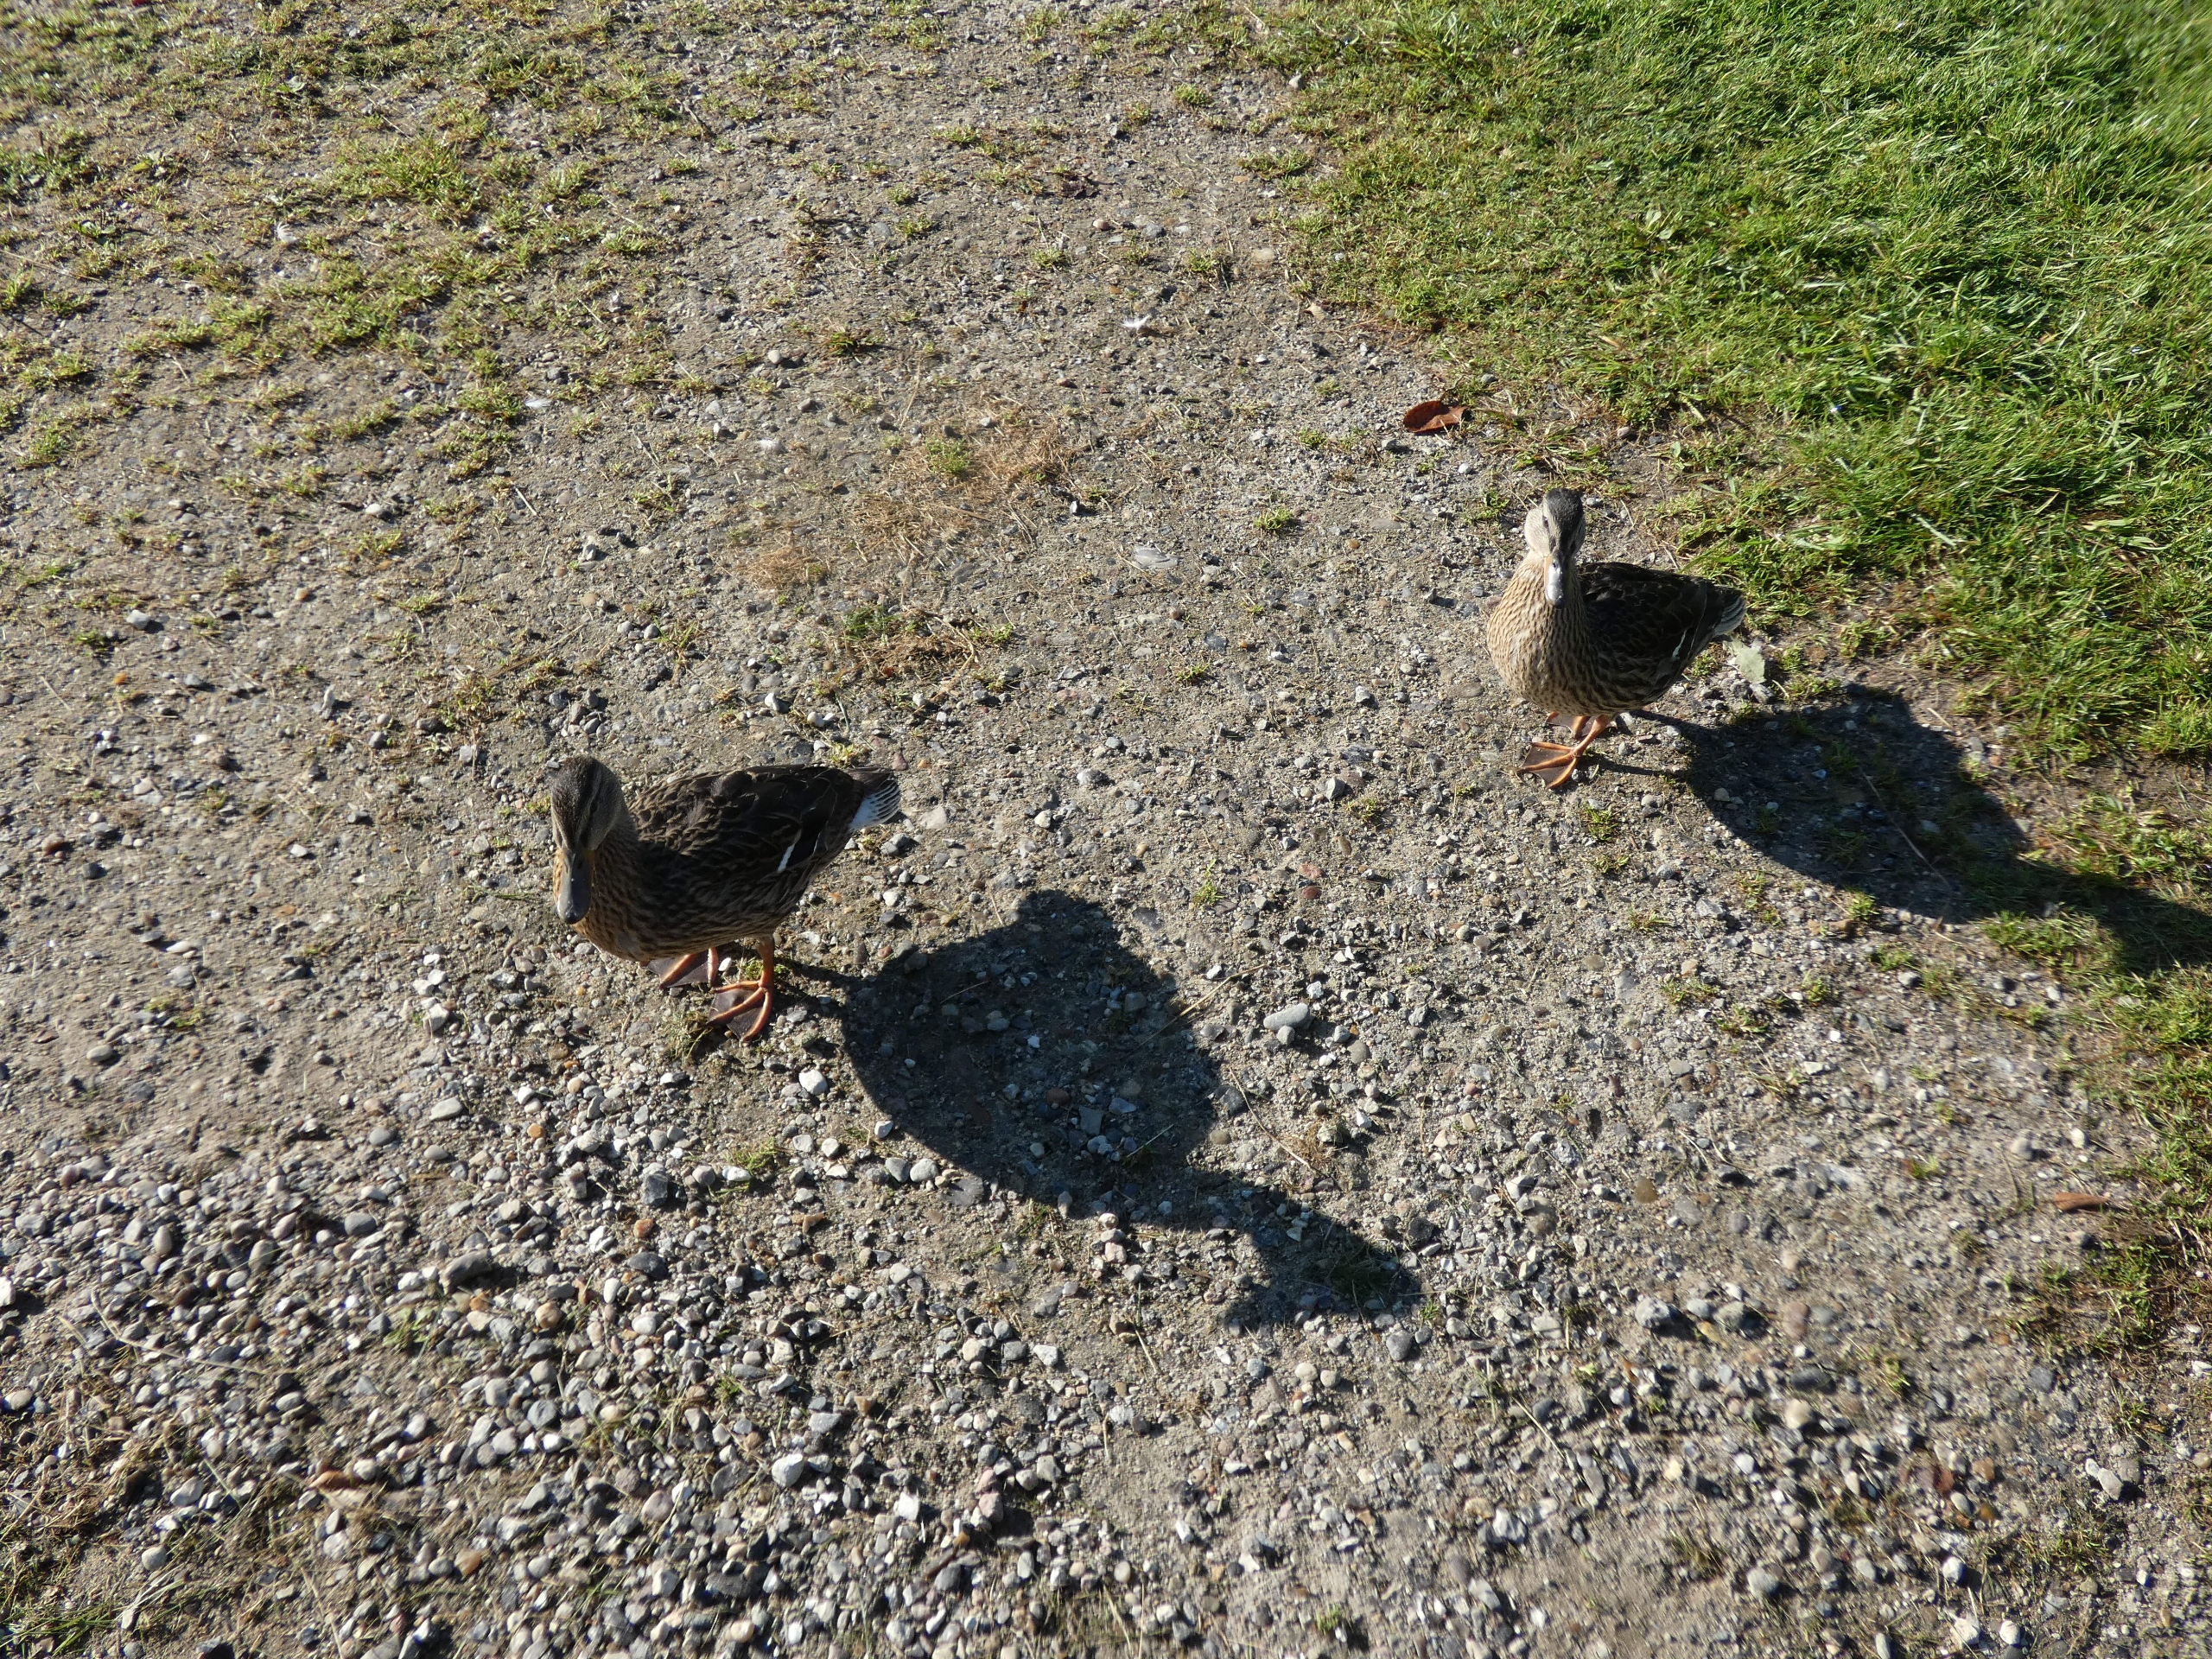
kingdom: Animalia
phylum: Chordata
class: Aves
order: Anseriformes
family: Anatidae
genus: Anas
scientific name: Anas platyrhynchos
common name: Gråand
